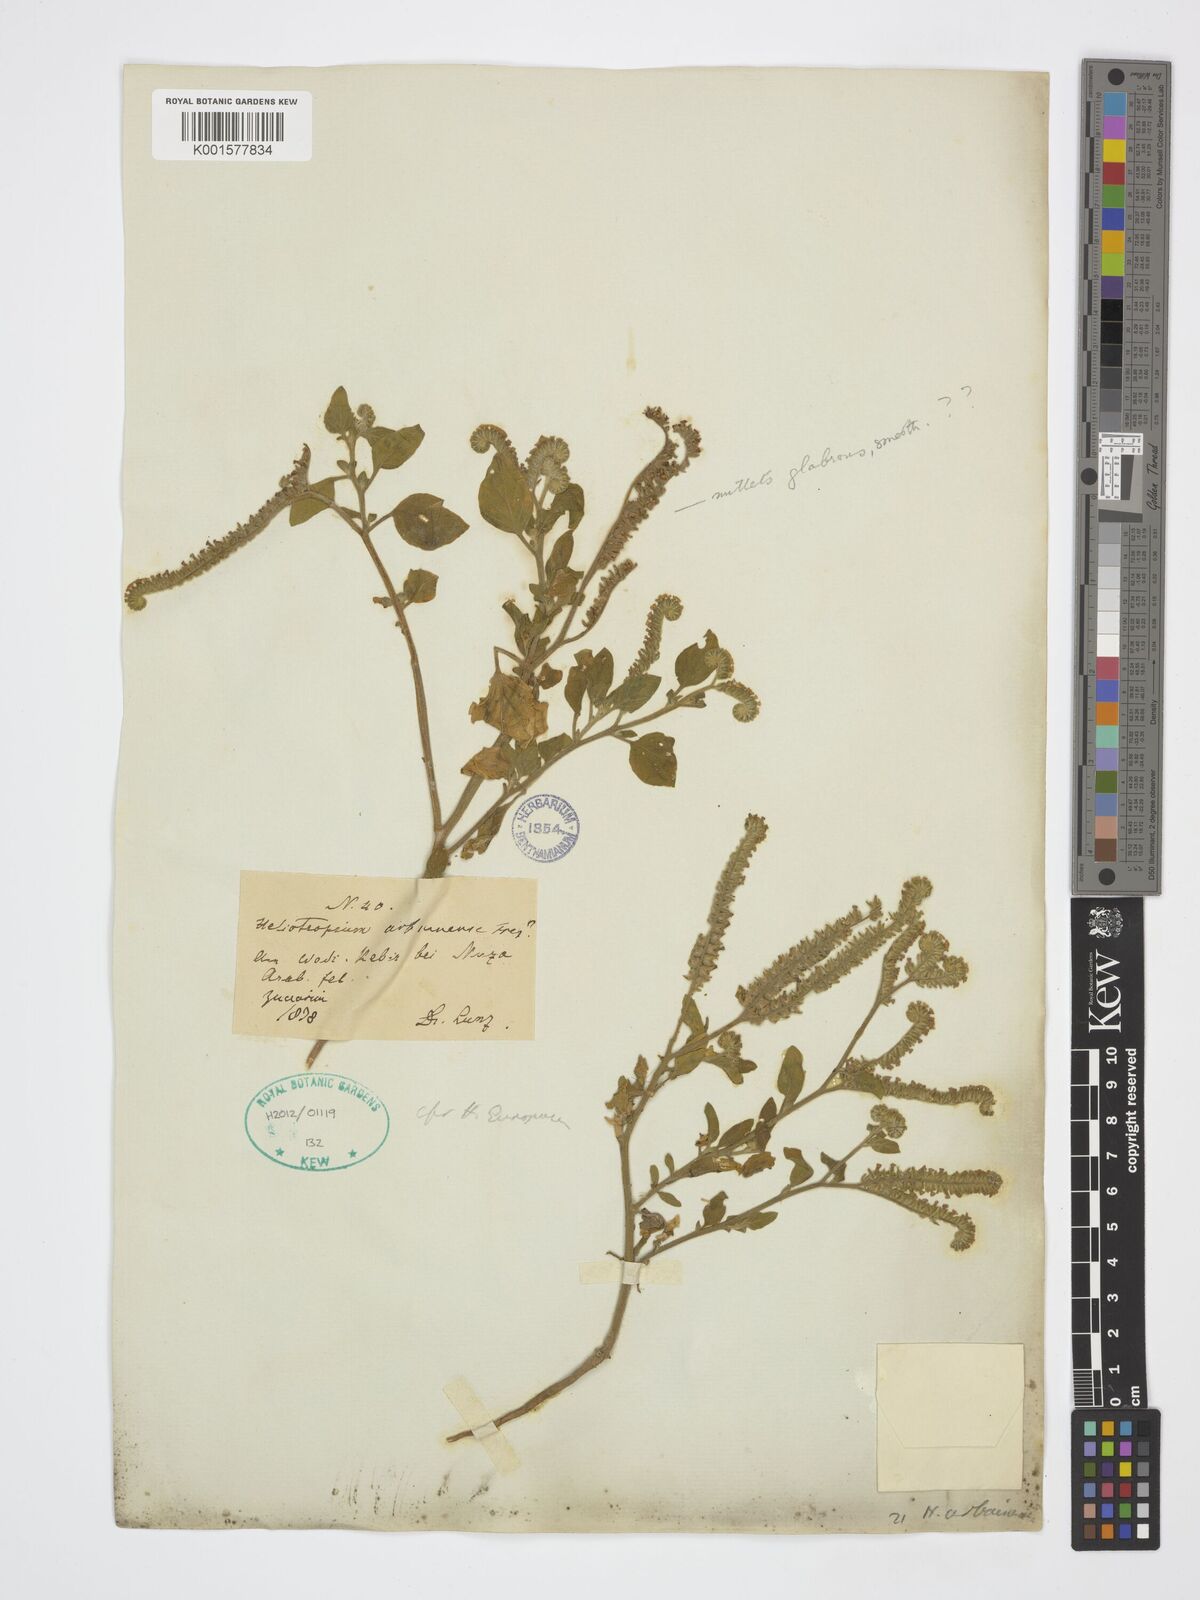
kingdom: Plantae
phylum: Tracheophyta
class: Magnoliopsida
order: Boraginales
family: Heliotropiaceae
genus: Heliotropium
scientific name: Heliotropium europaeum
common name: European heliotrope
